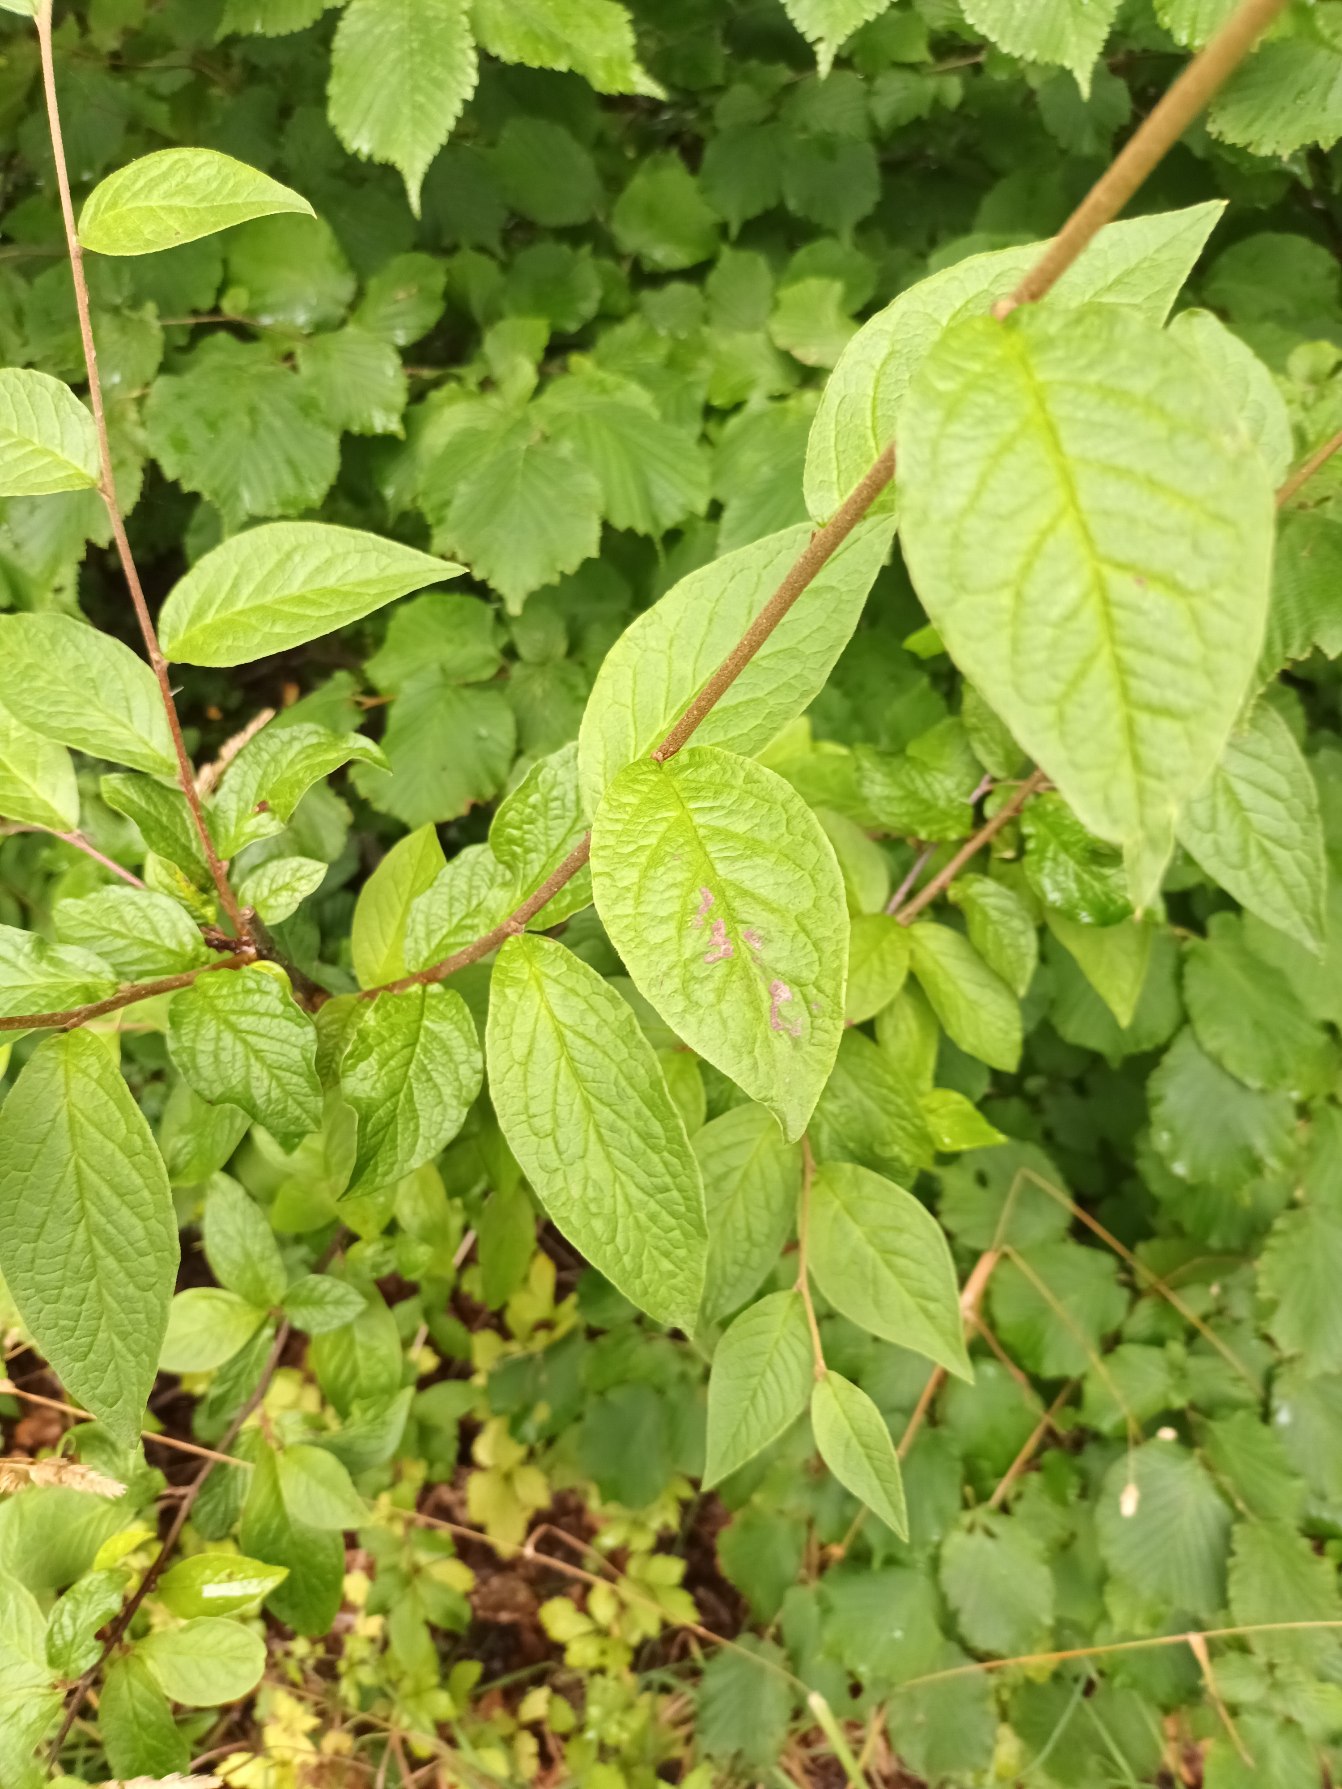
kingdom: Plantae
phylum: Tracheophyta
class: Magnoliopsida
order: Rosales
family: Rosaceae
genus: Cotoneaster
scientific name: Cotoneaster bullatus
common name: Storbladet dværgmispel
